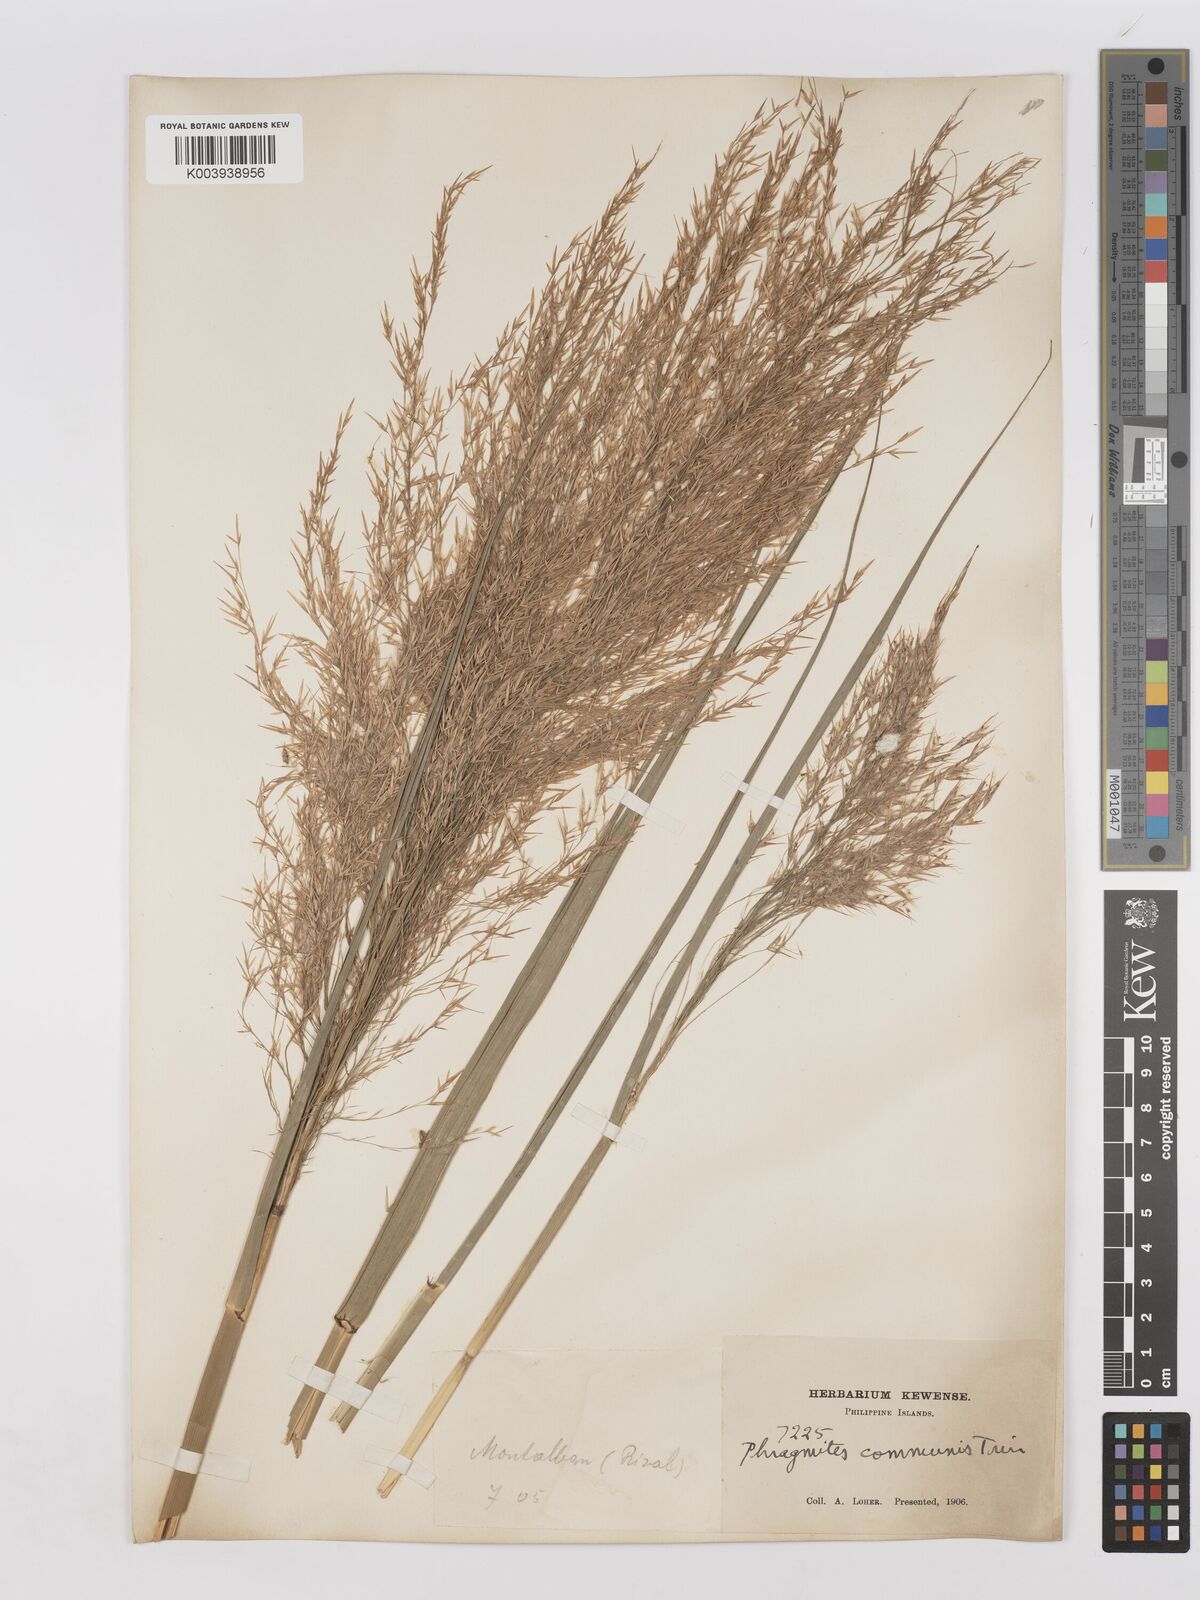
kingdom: Plantae
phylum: Tracheophyta
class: Liliopsida
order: Poales
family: Poaceae
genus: Phragmites
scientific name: Phragmites karka
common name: Tropical reed
